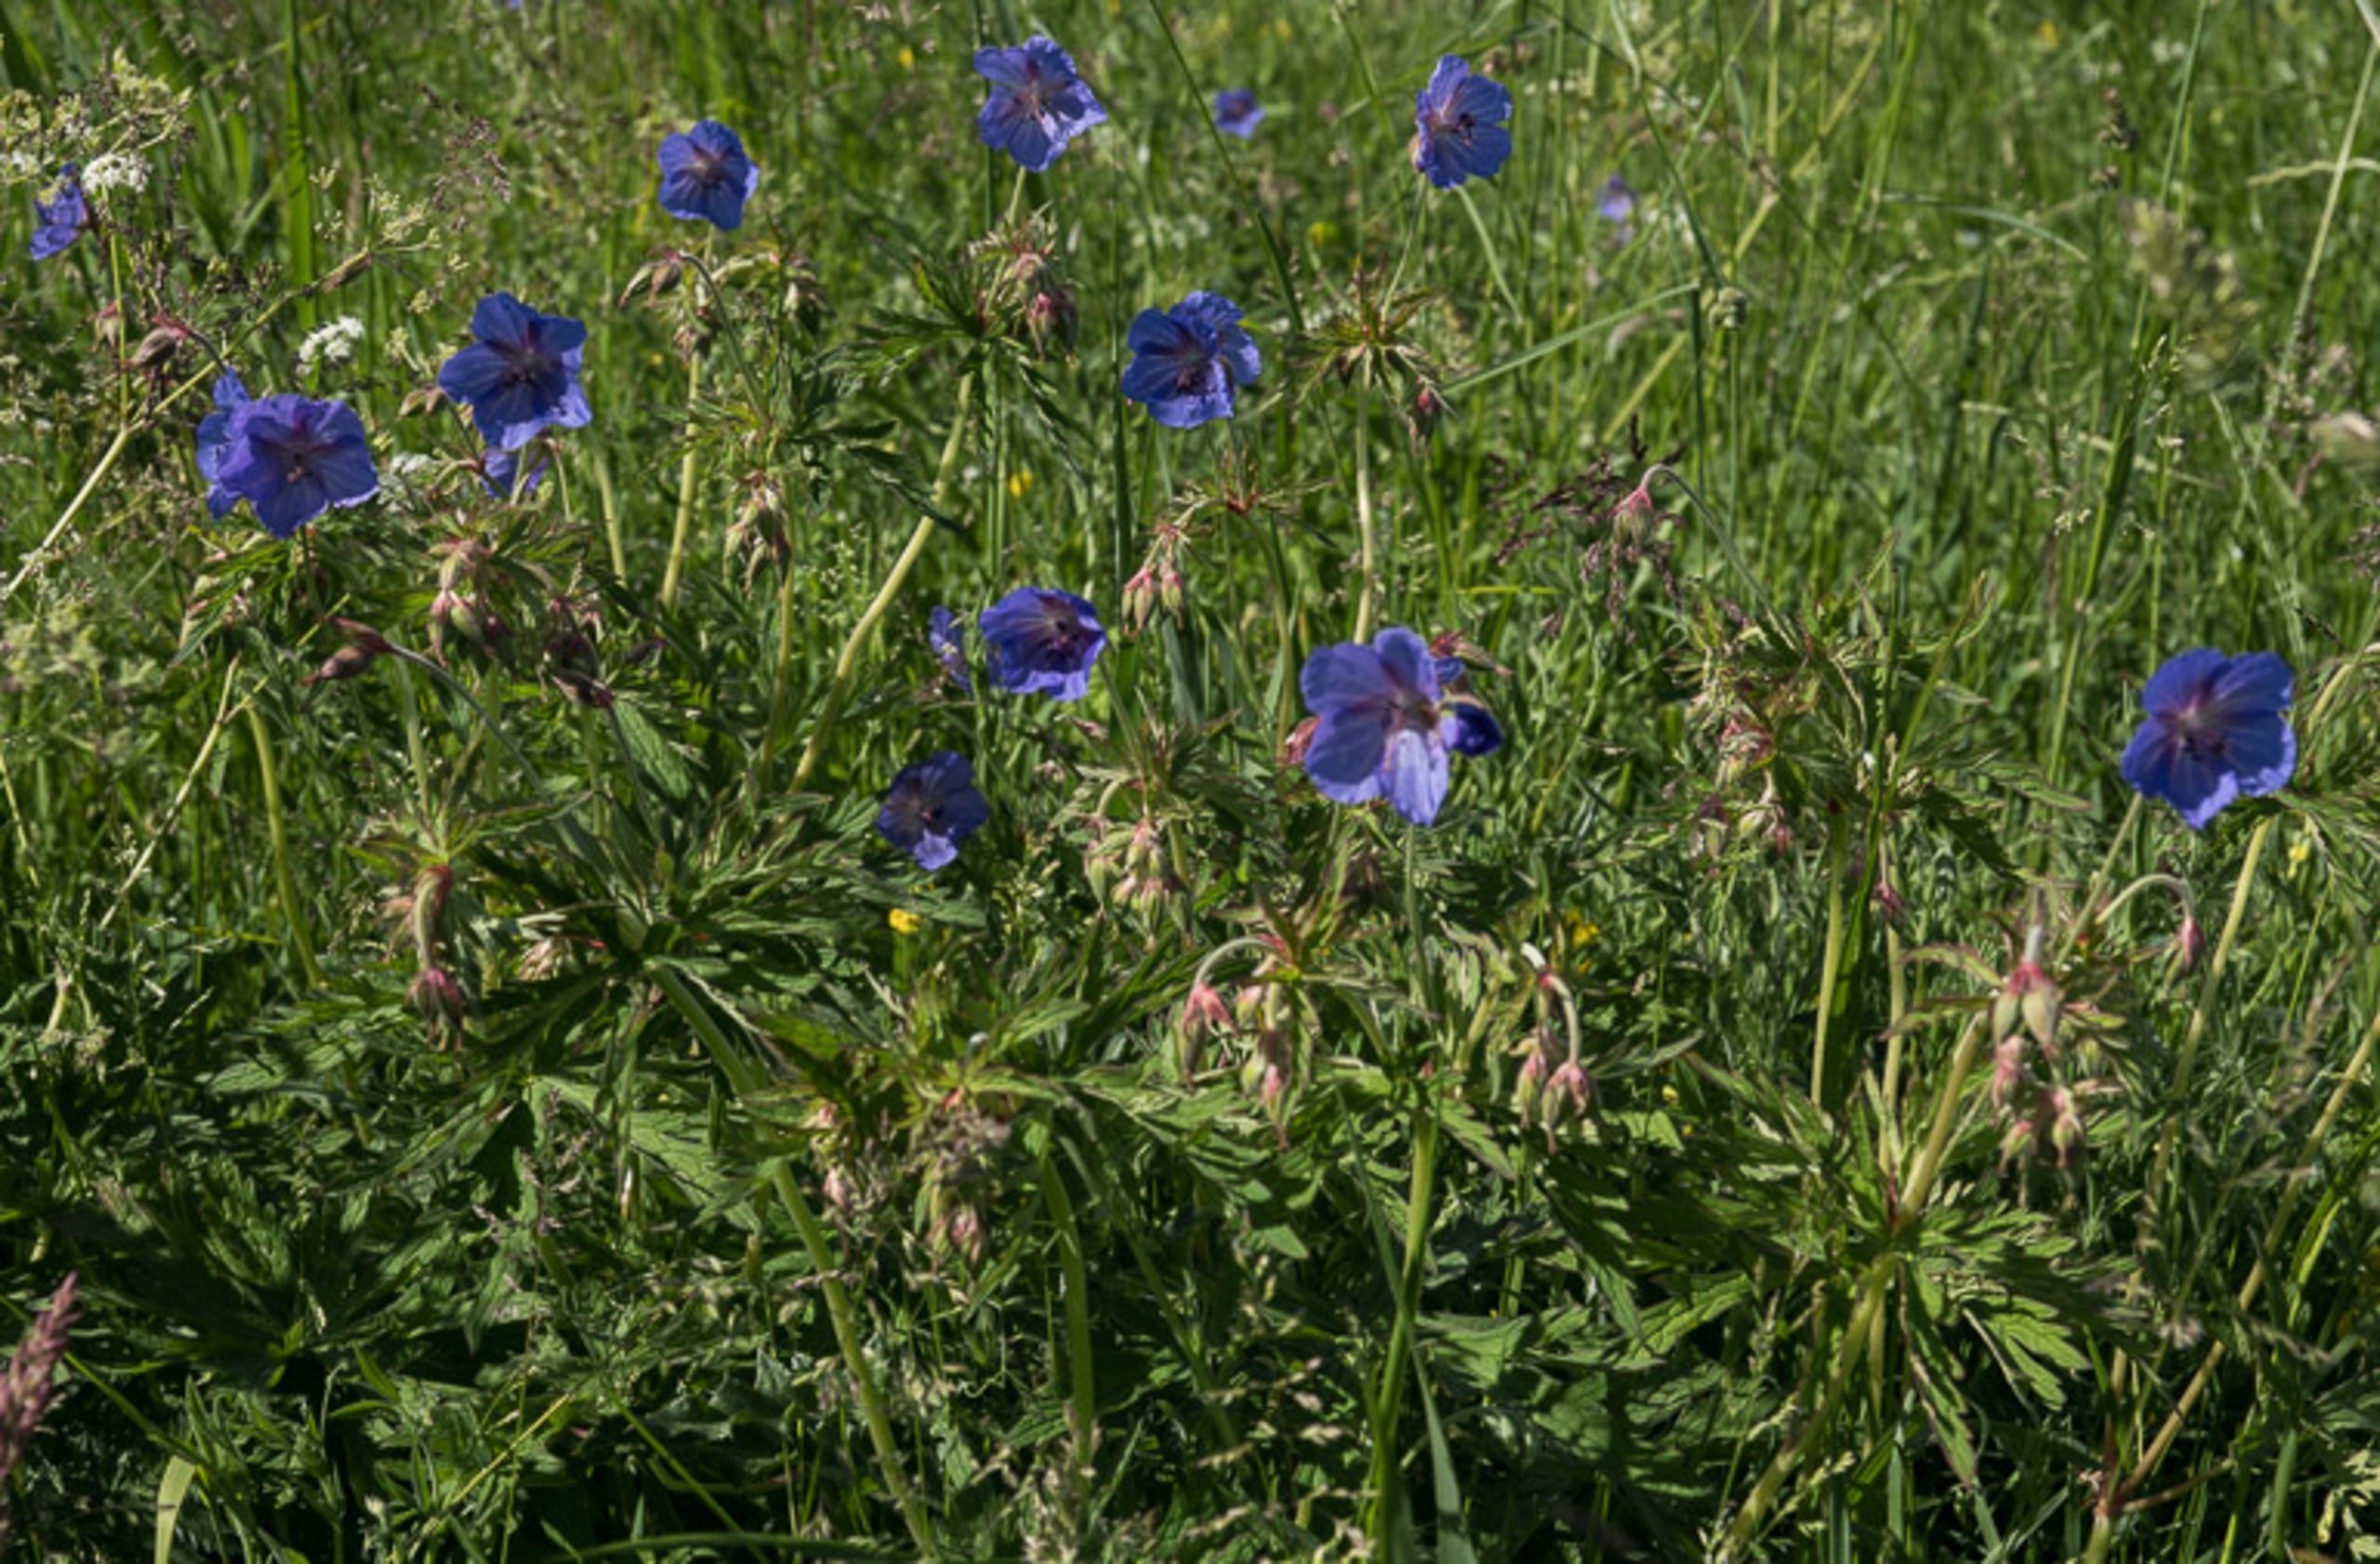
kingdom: Plantae
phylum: Tracheophyta
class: Magnoliopsida
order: Geraniales
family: Geraniaceae
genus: Geranium
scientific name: Geranium pratense
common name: Eng-storkenæb
